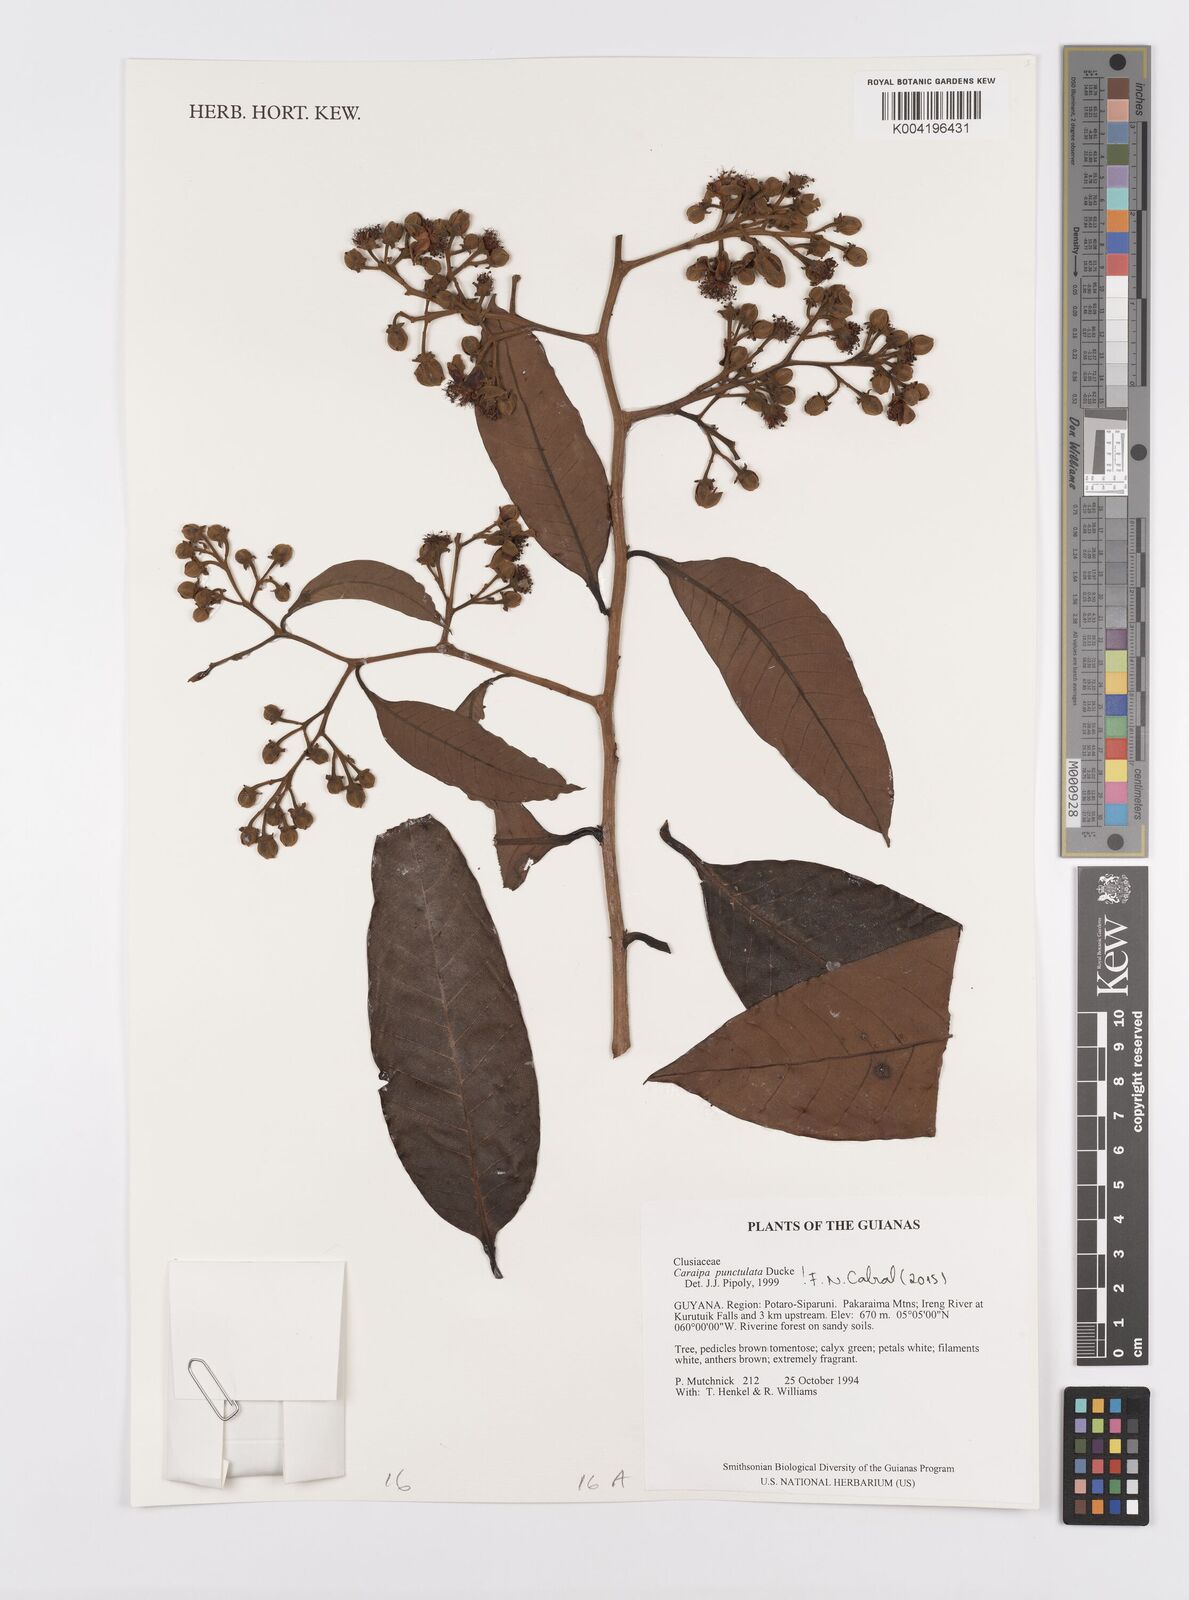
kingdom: Plantae
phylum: Tracheophyta
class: Magnoliopsida
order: Malpighiales
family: Calophyllaceae
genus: Caraipa
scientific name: Caraipa punctulata
